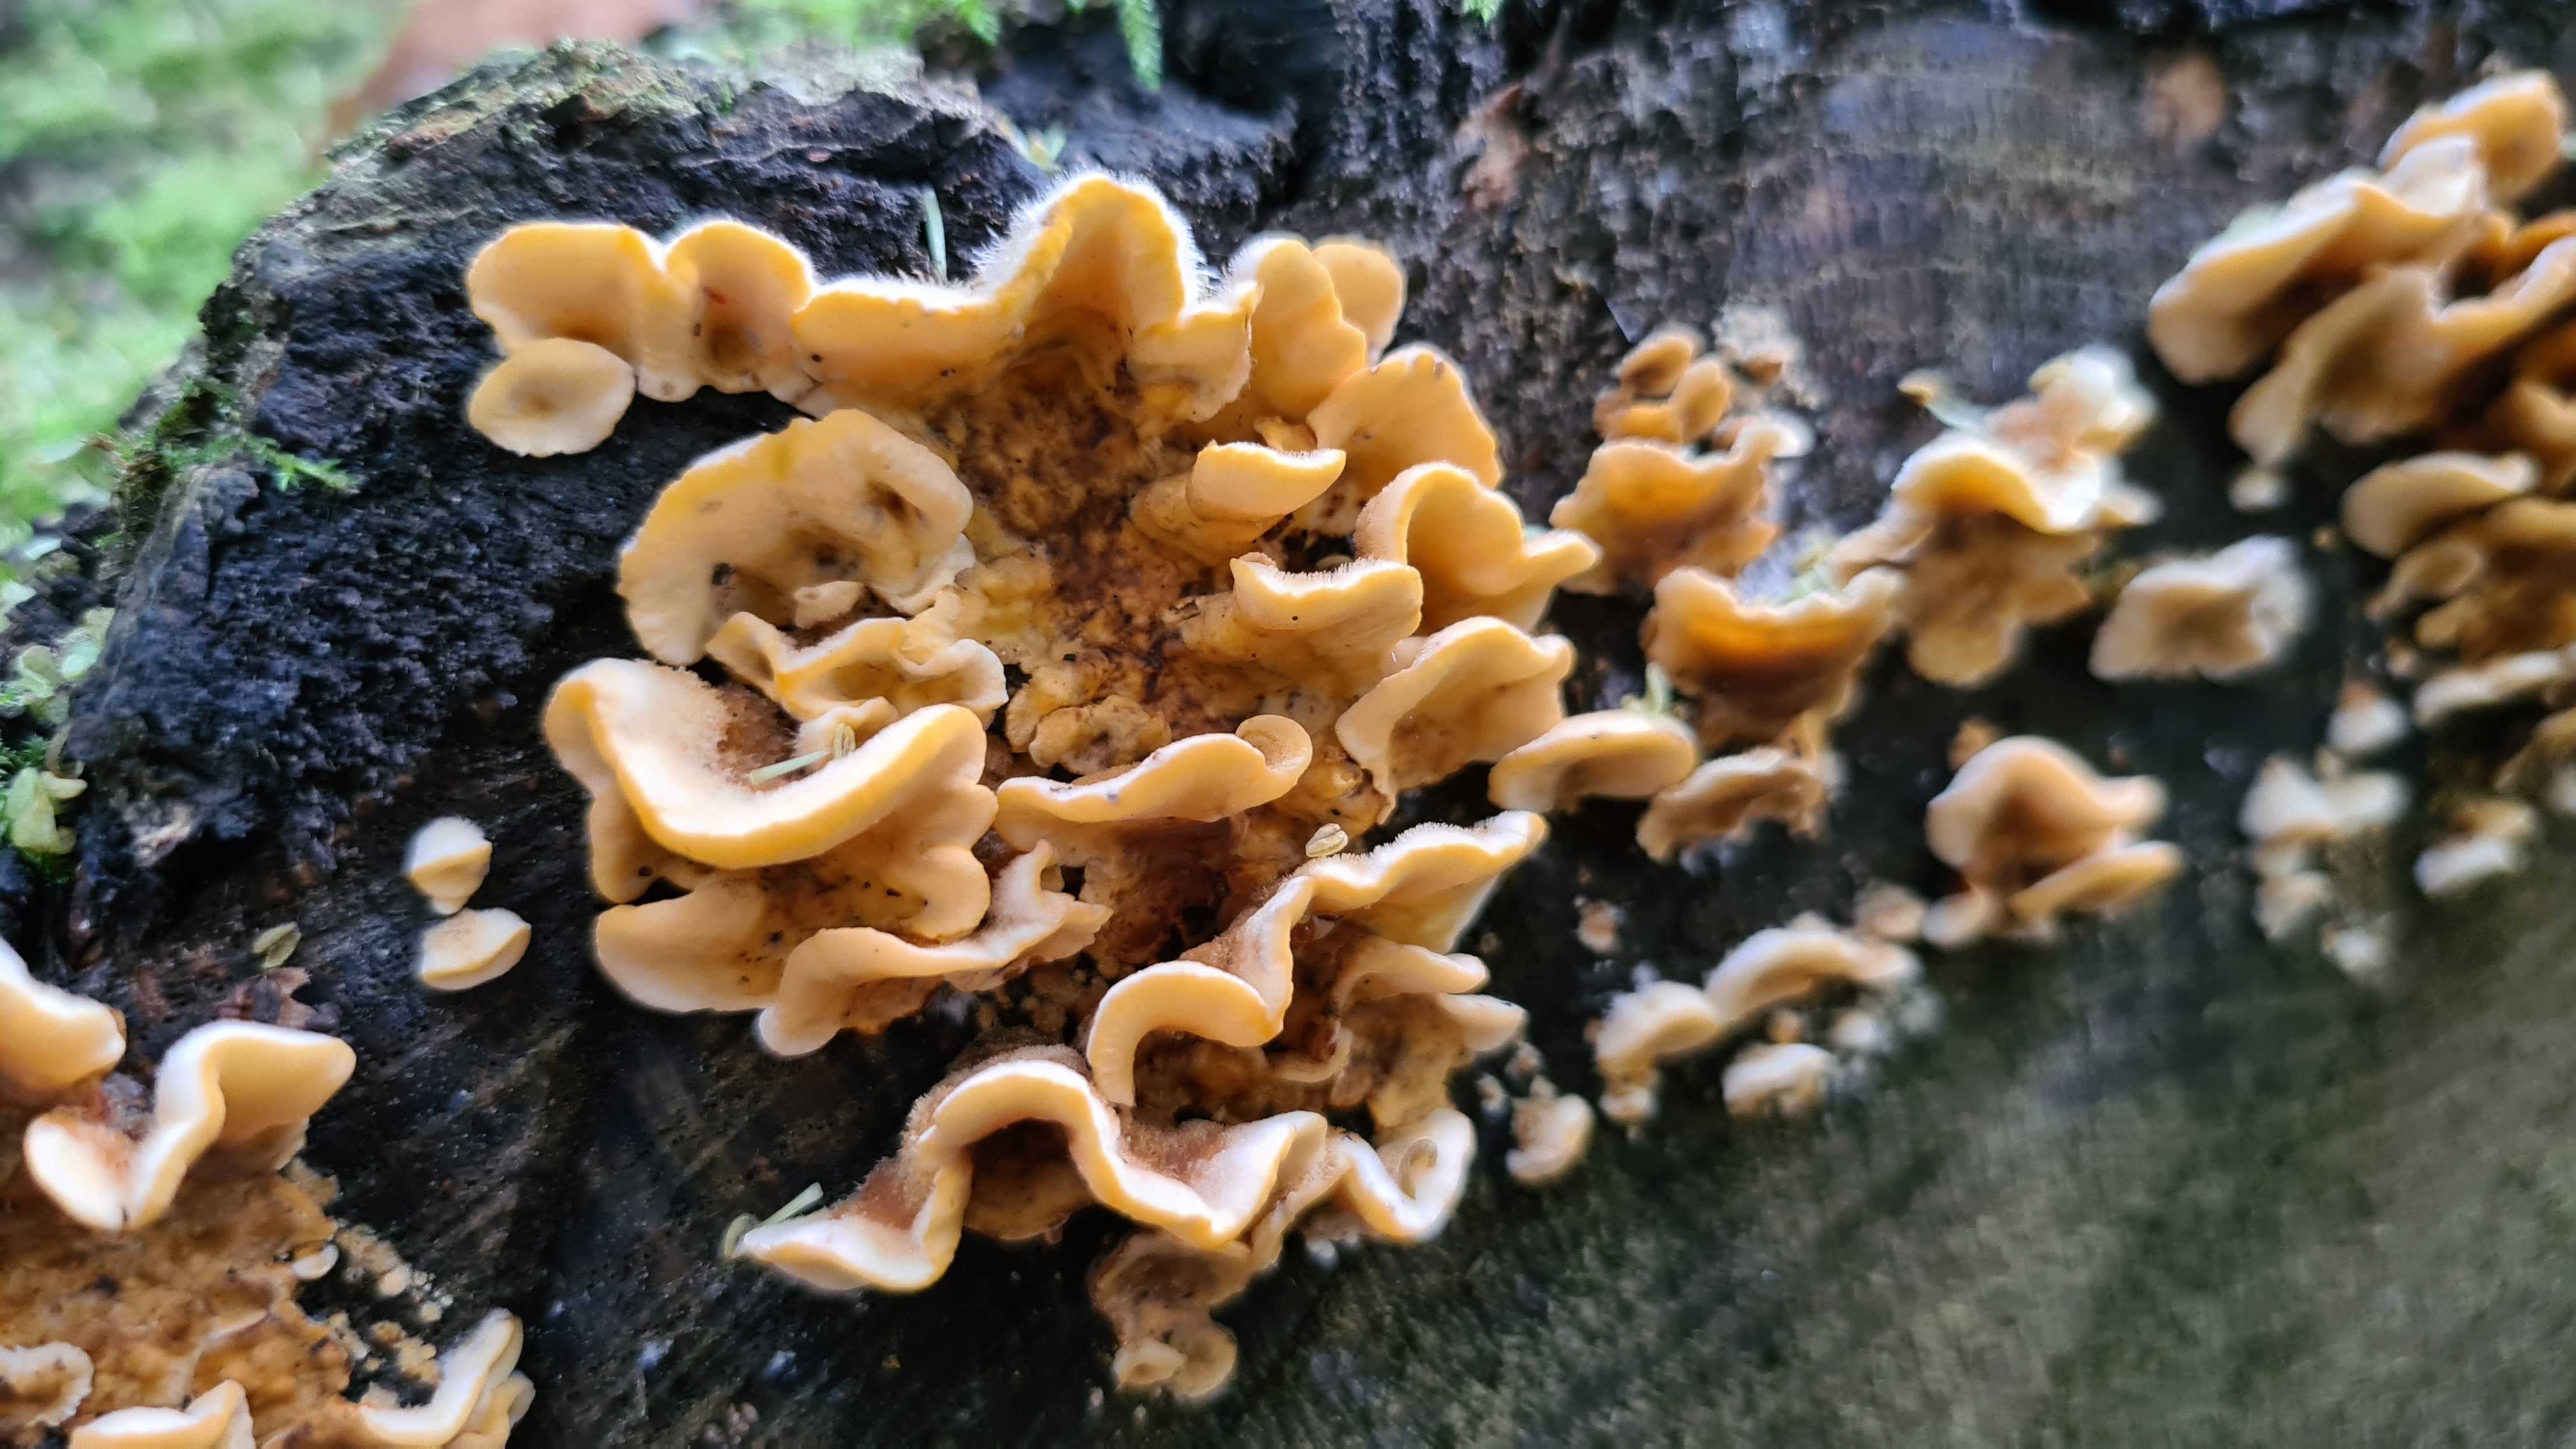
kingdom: Fungi
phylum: Basidiomycota
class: Agaricomycetes
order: Russulales
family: Stereaceae
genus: Stereum
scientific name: Stereum hirsutum
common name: håret lædersvamp
